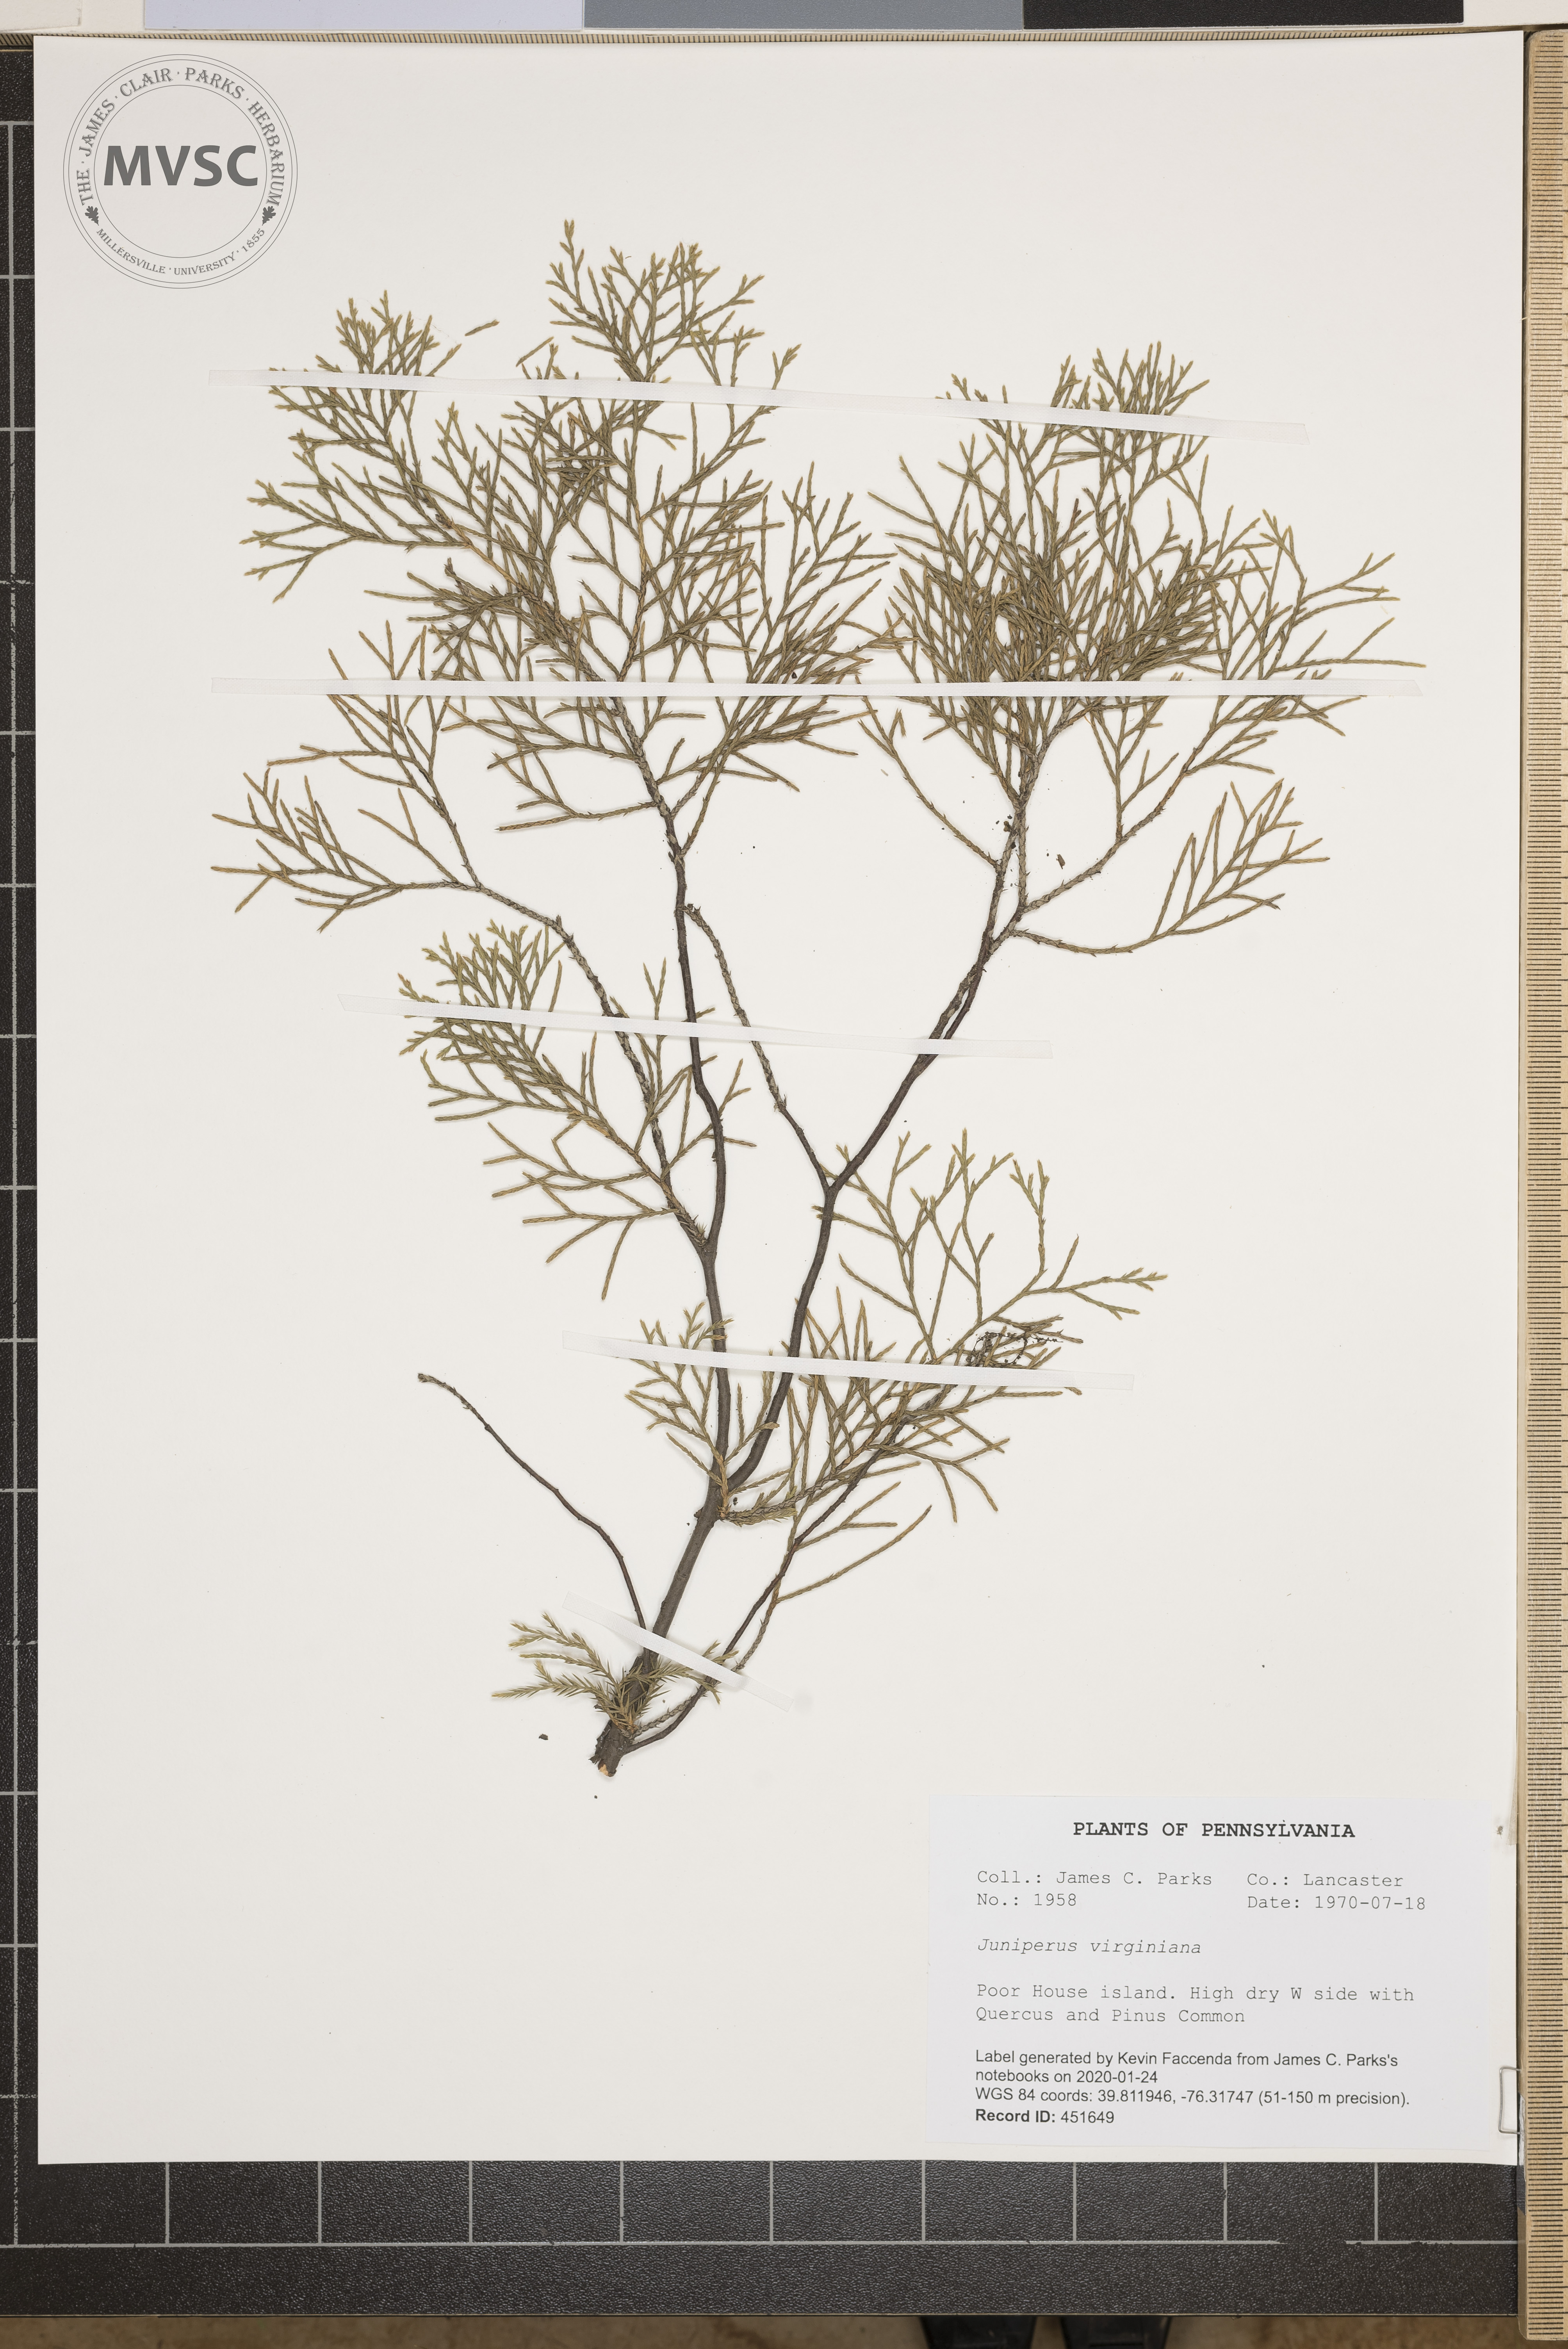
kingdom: Plantae
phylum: Tracheophyta
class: Pinopsida
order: Pinales
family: Cupressaceae
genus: Juniperus
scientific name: Juniperus virginiana
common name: Red juniper
